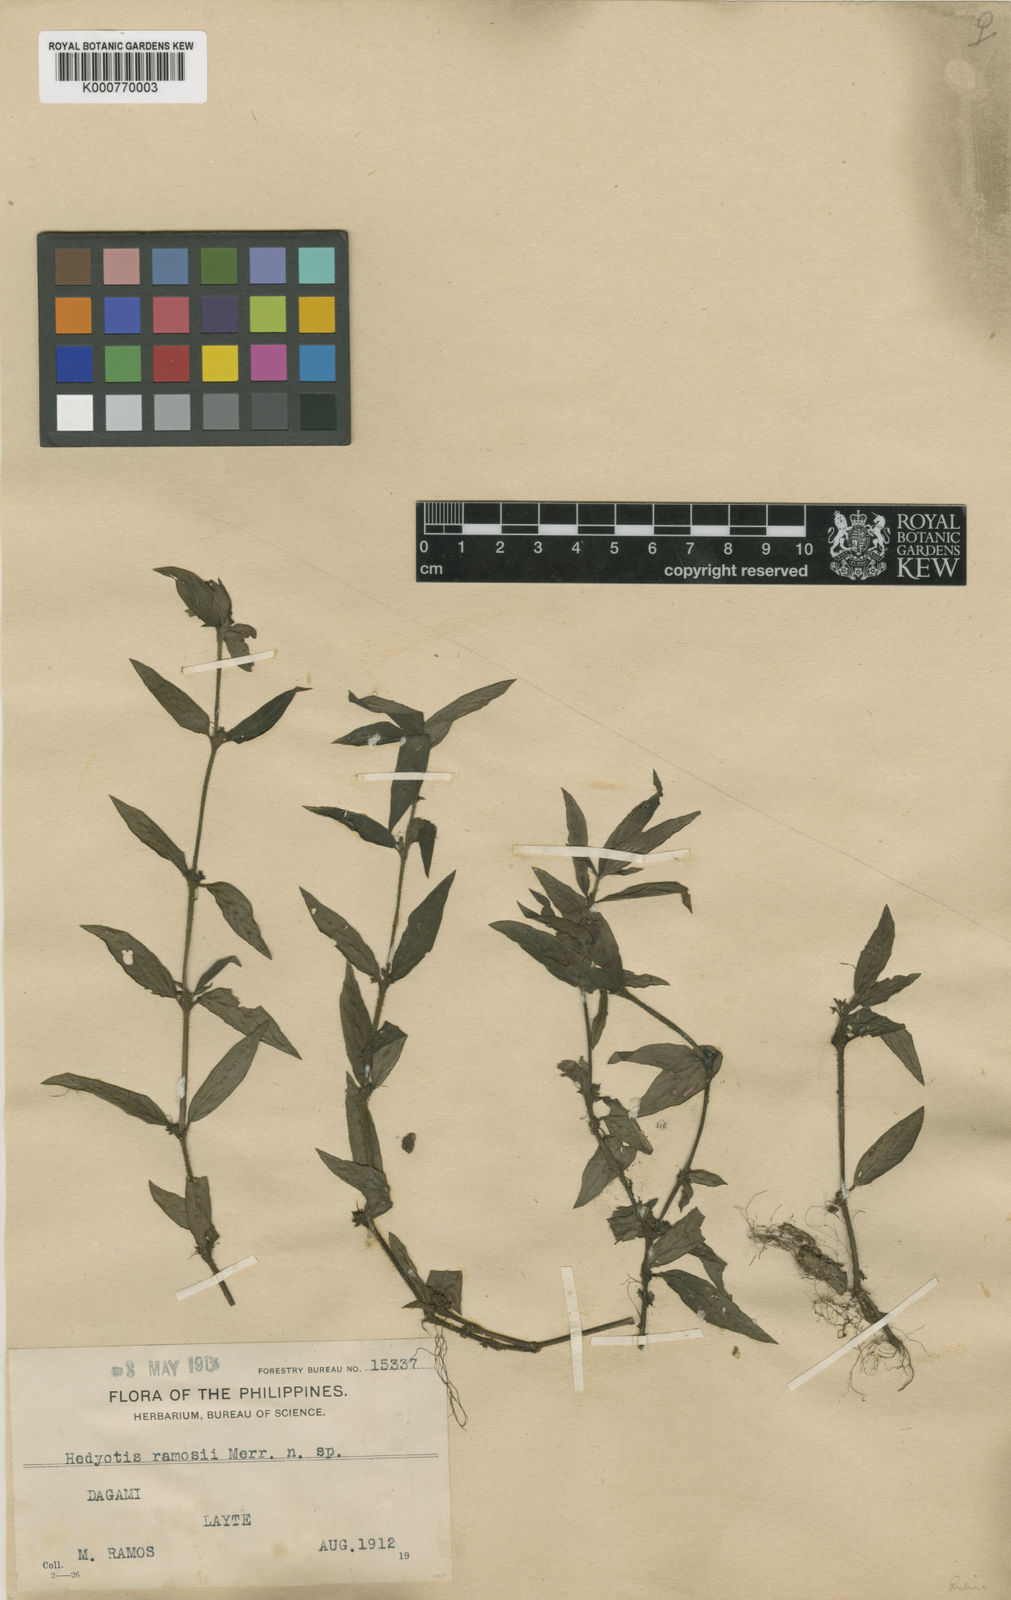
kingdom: Plantae
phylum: Tracheophyta
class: Magnoliopsida
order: Gentianales
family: Rubiaceae
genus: Exallage
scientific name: Exallage
